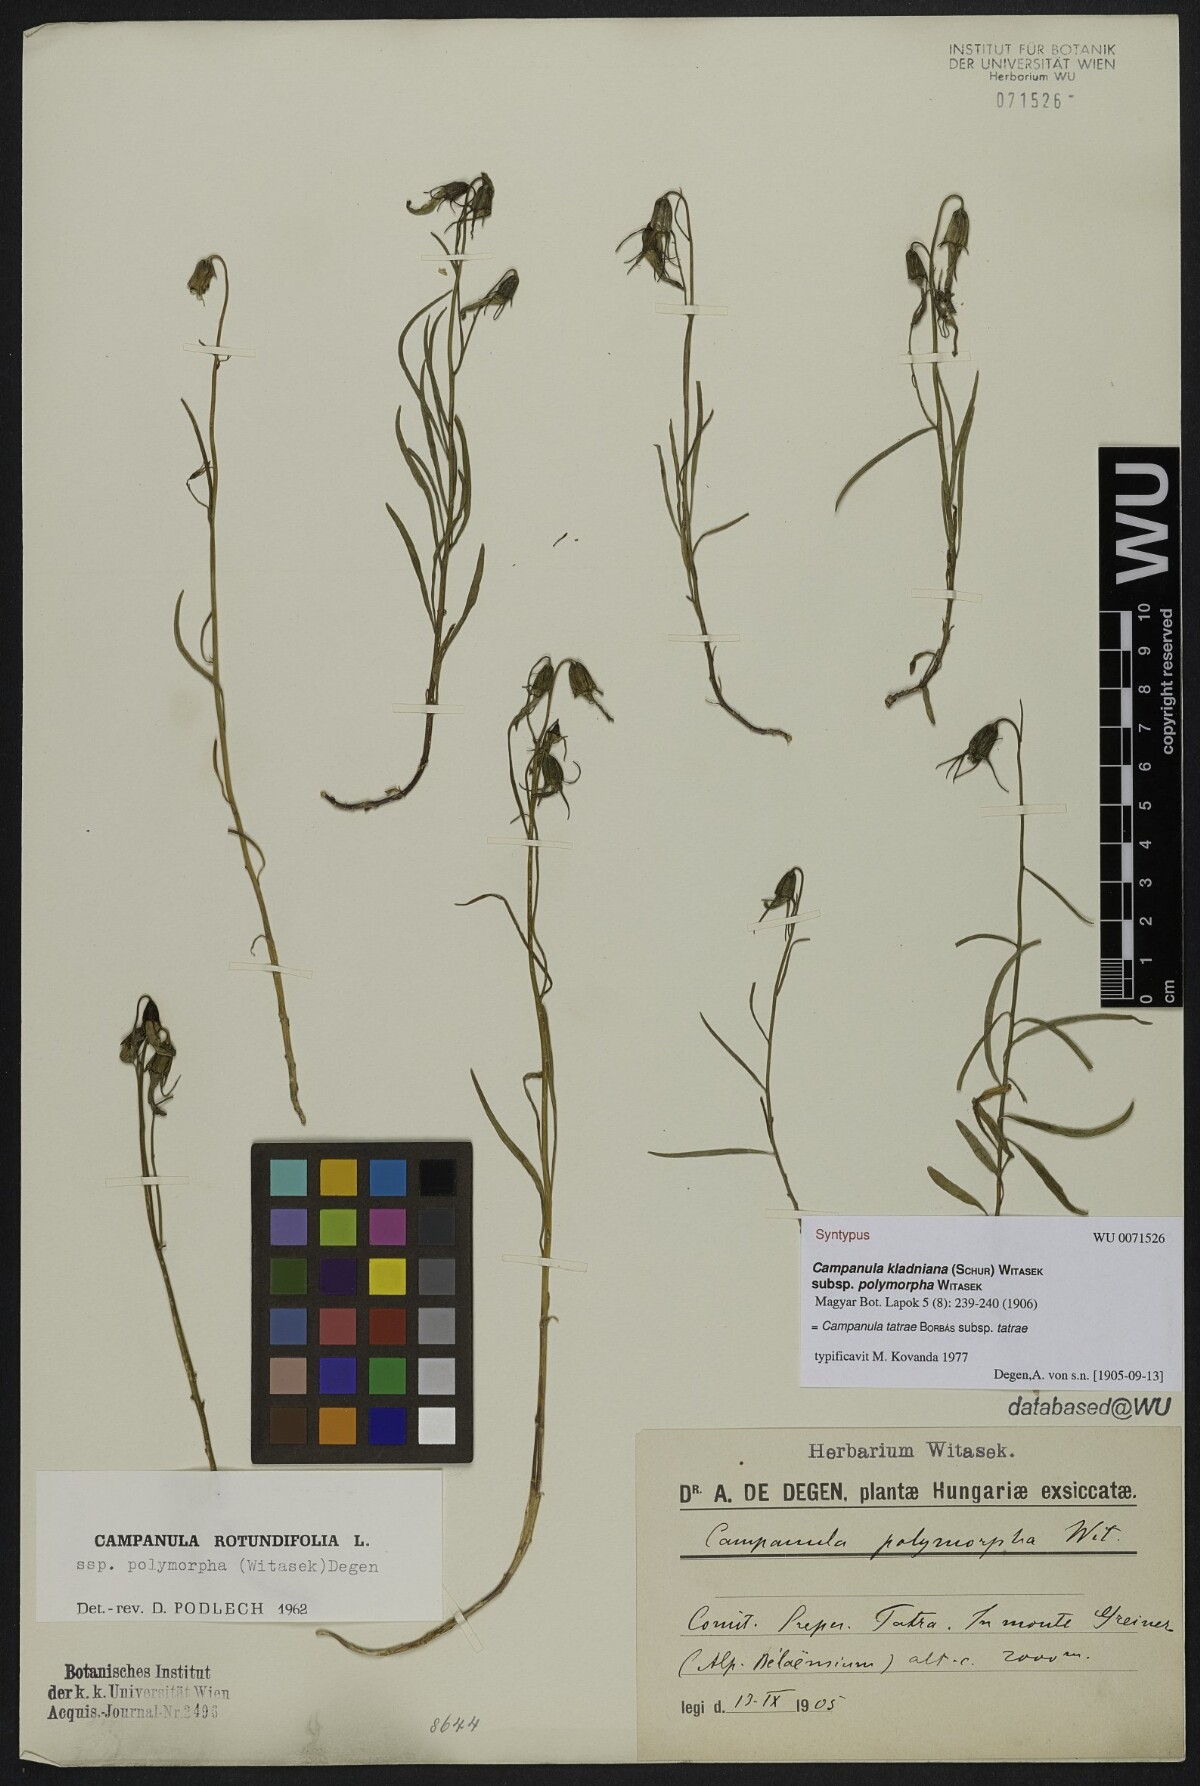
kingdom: Plantae
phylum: Tracheophyta
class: Magnoliopsida
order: Asterales
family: Campanulaceae
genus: Campanula
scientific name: Campanula tatrae
